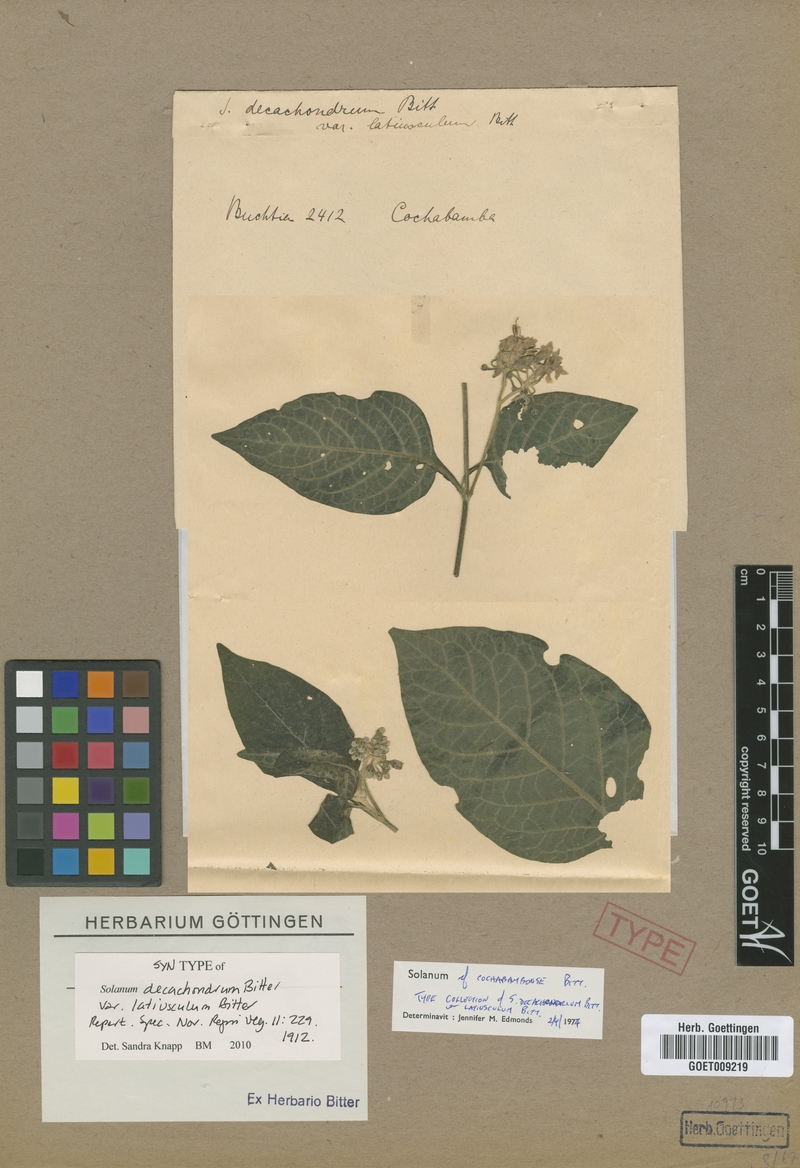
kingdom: Plantae
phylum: Tracheophyta
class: Magnoliopsida
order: Solanales
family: Solanaceae
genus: Solanum
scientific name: Solanum cochabambense
